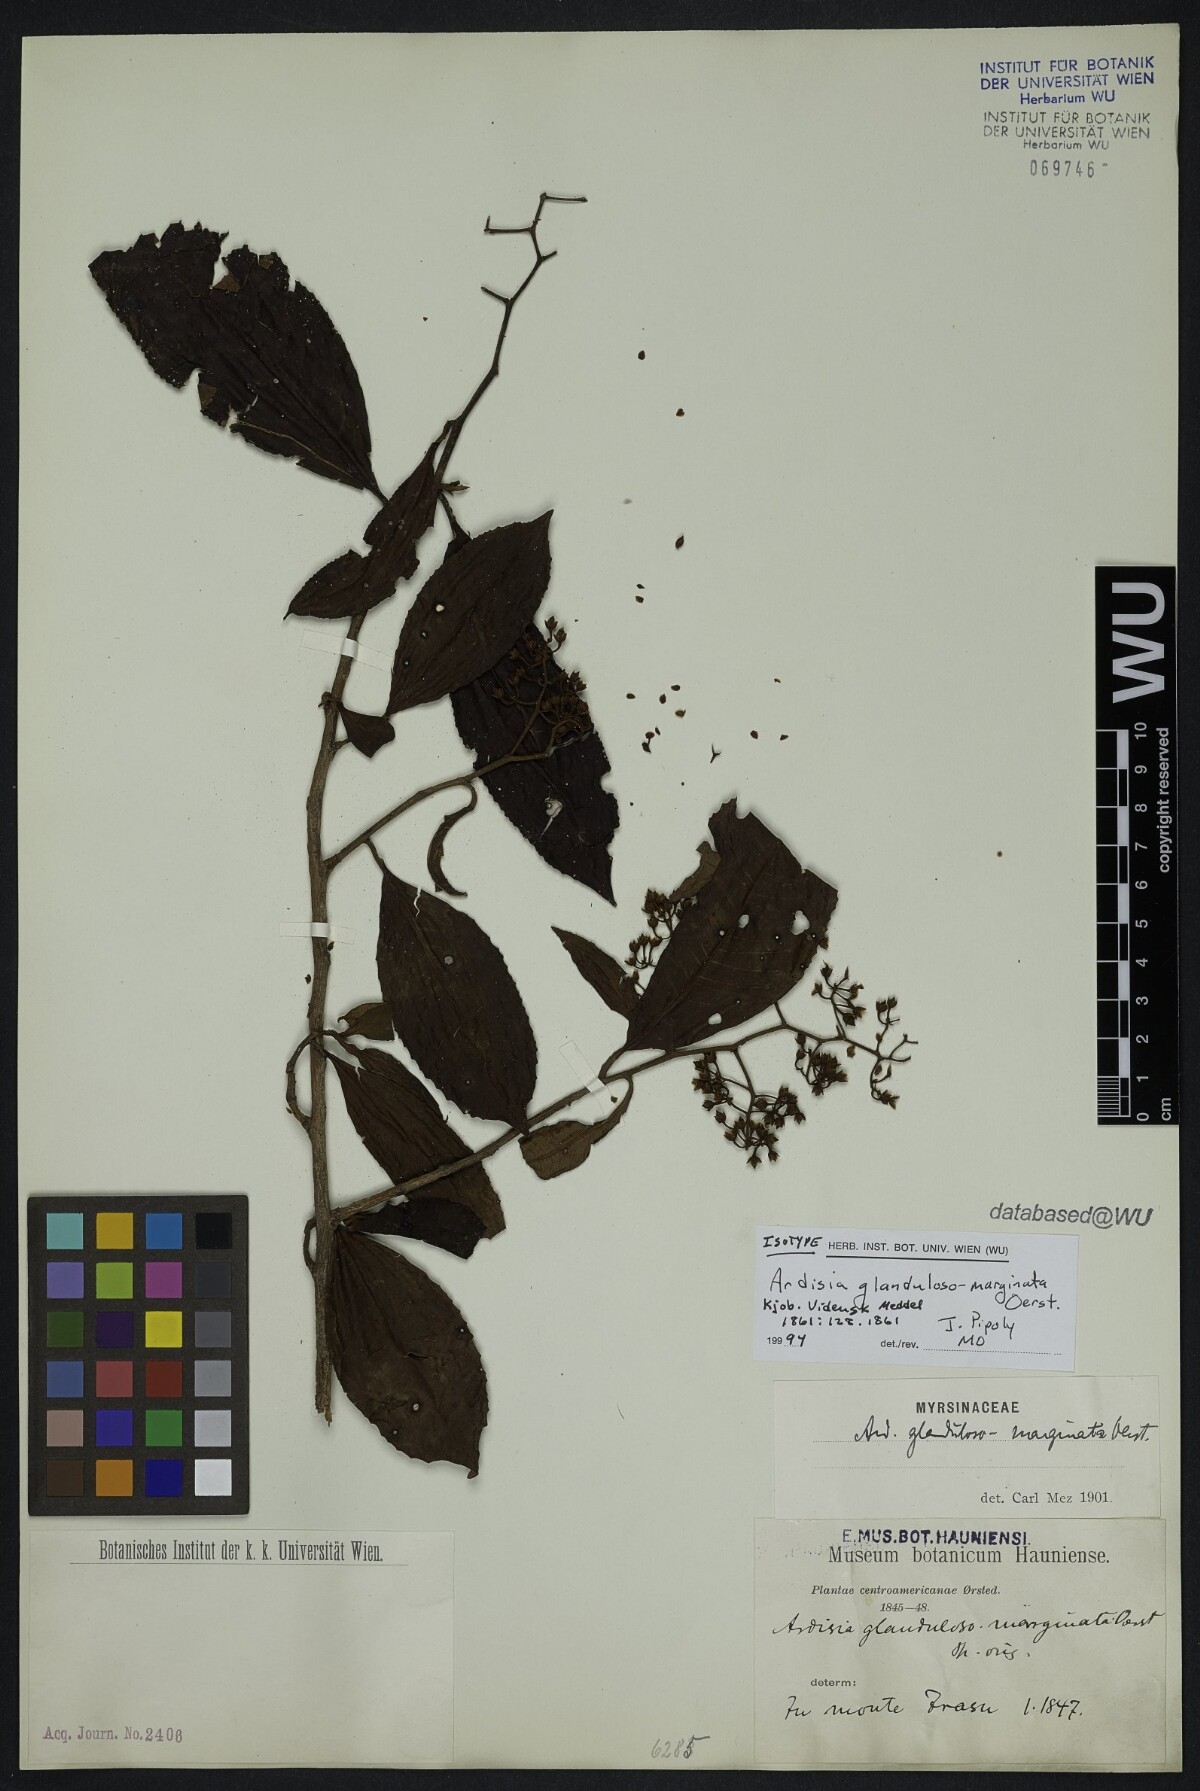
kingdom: Plantae
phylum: Tracheophyta
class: Magnoliopsida
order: Ericales
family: Primulaceae
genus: Ardisia
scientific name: Ardisia glandulosomarginata
